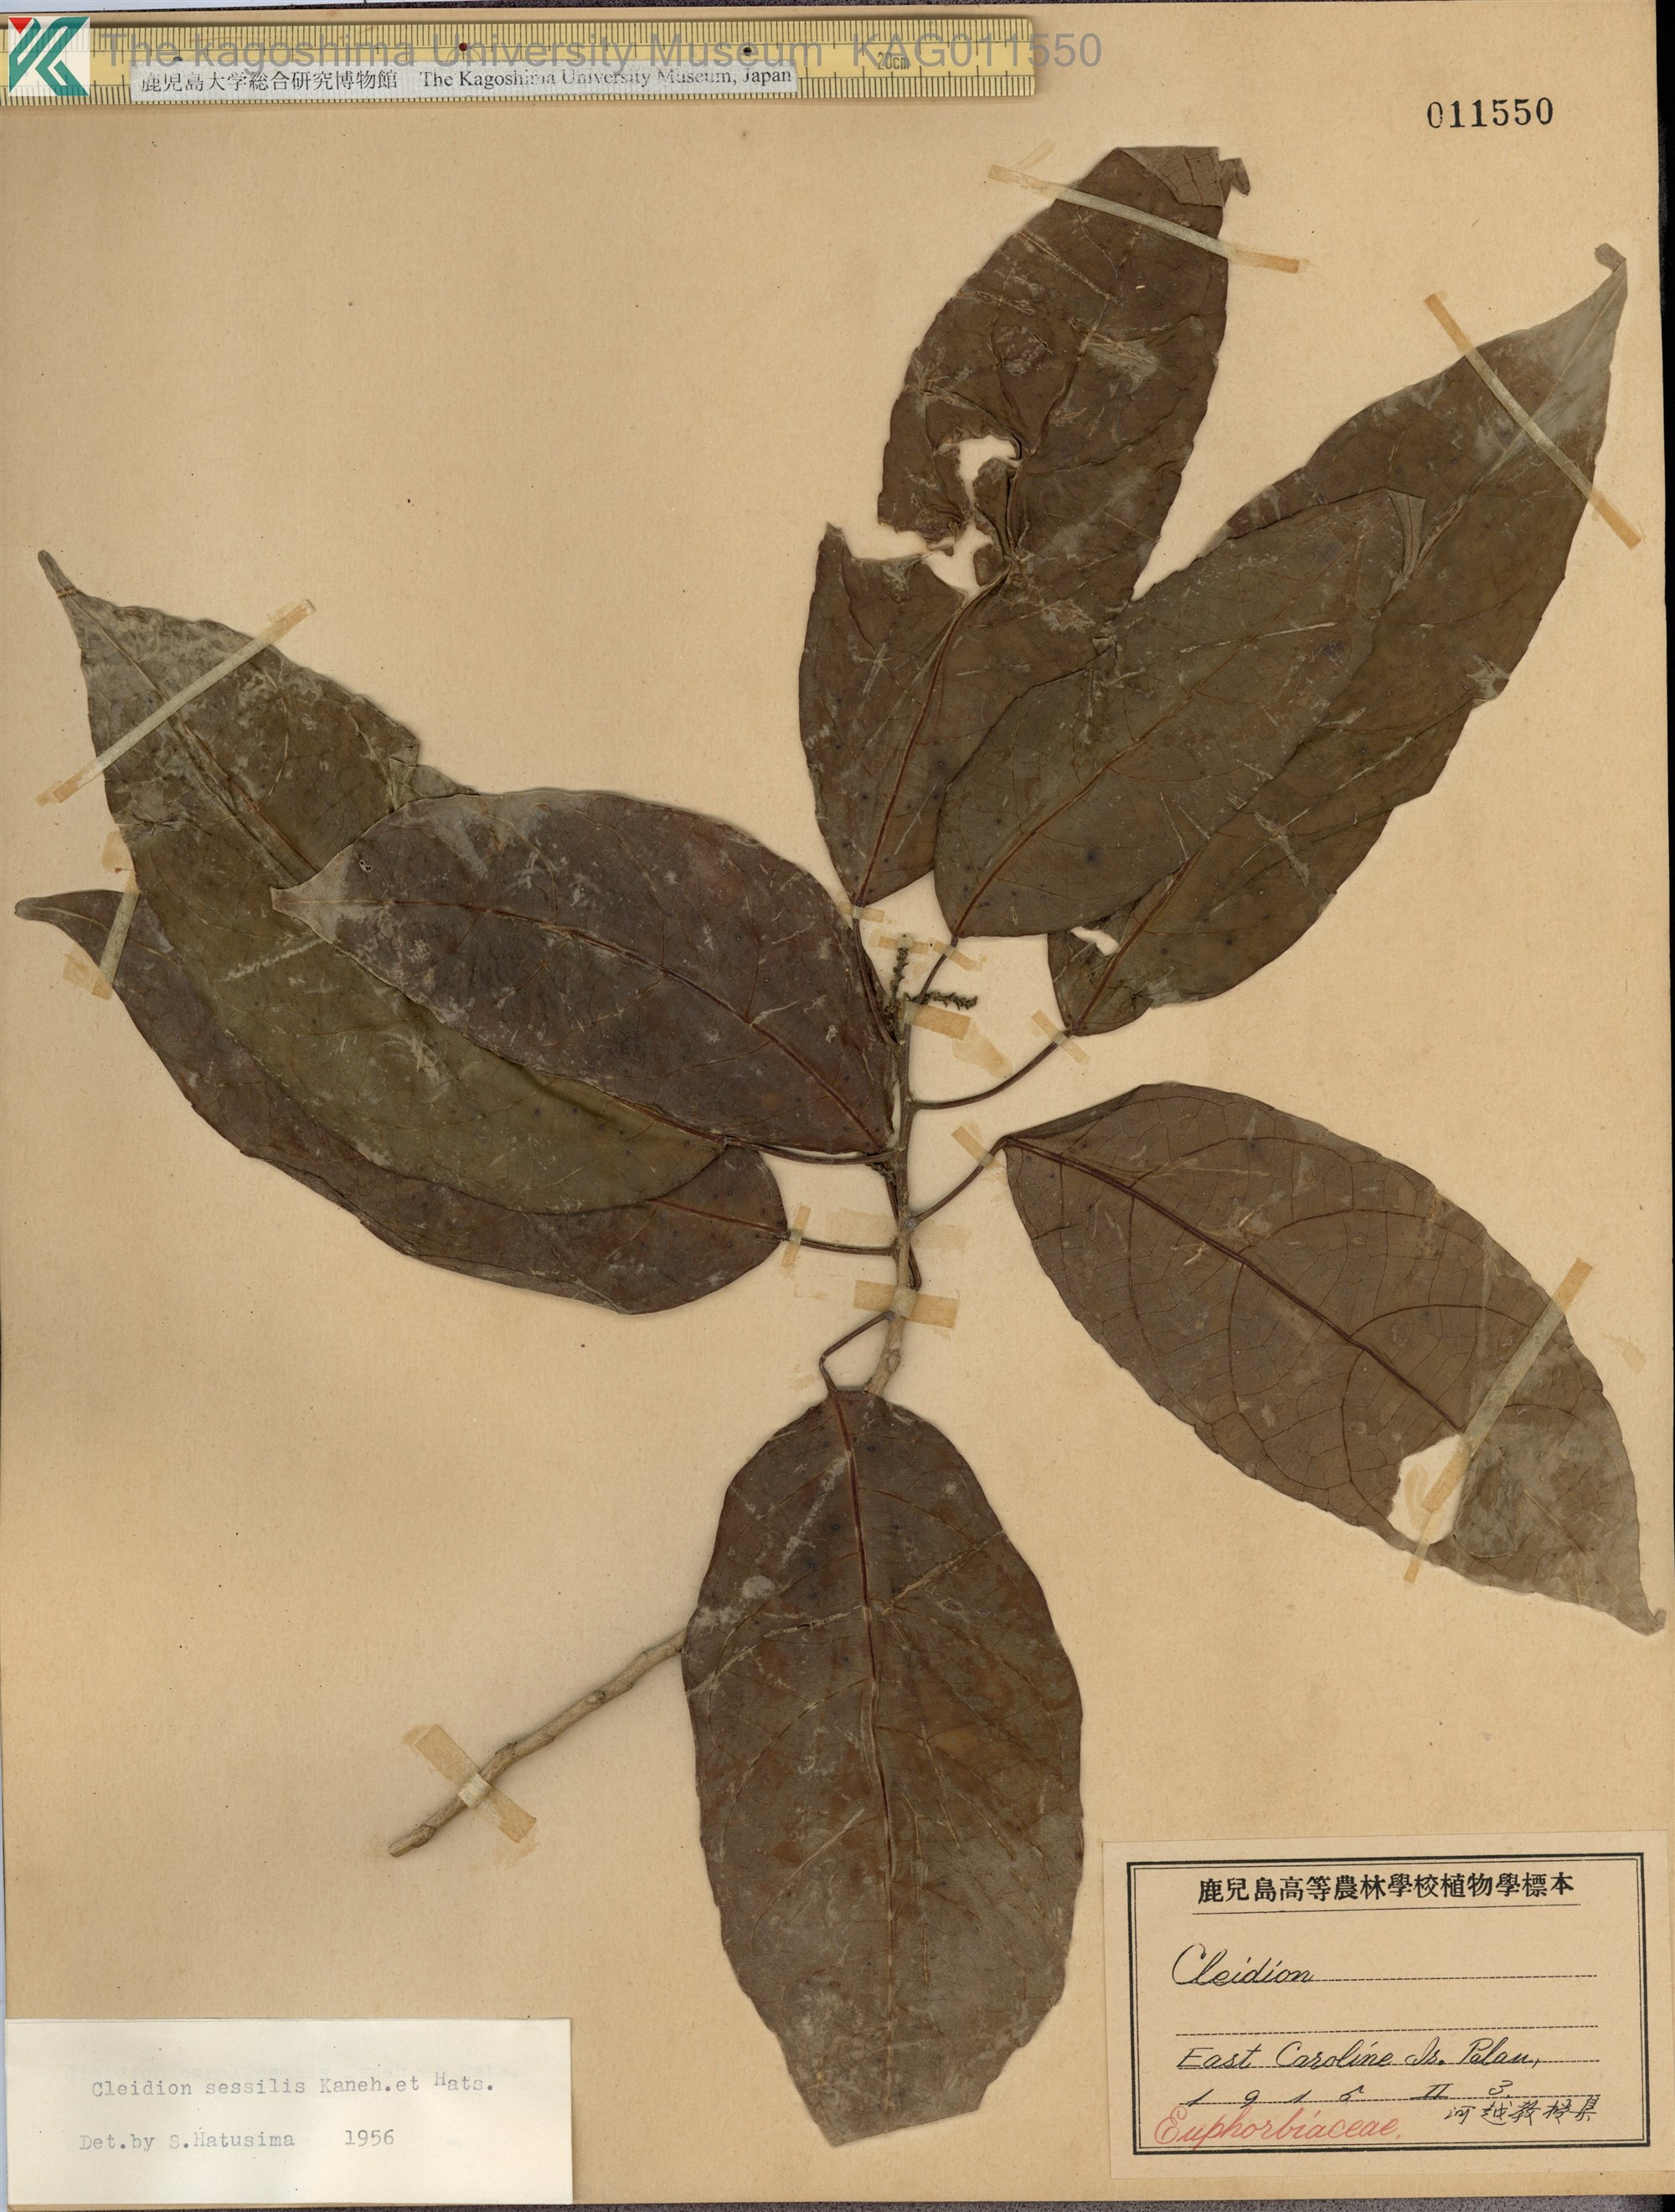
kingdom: Plantae
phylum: Tracheophyta
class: Magnoliopsida
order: Malpighiales
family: Euphorbiaceae
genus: Cleidion
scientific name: Cleidion sessile
